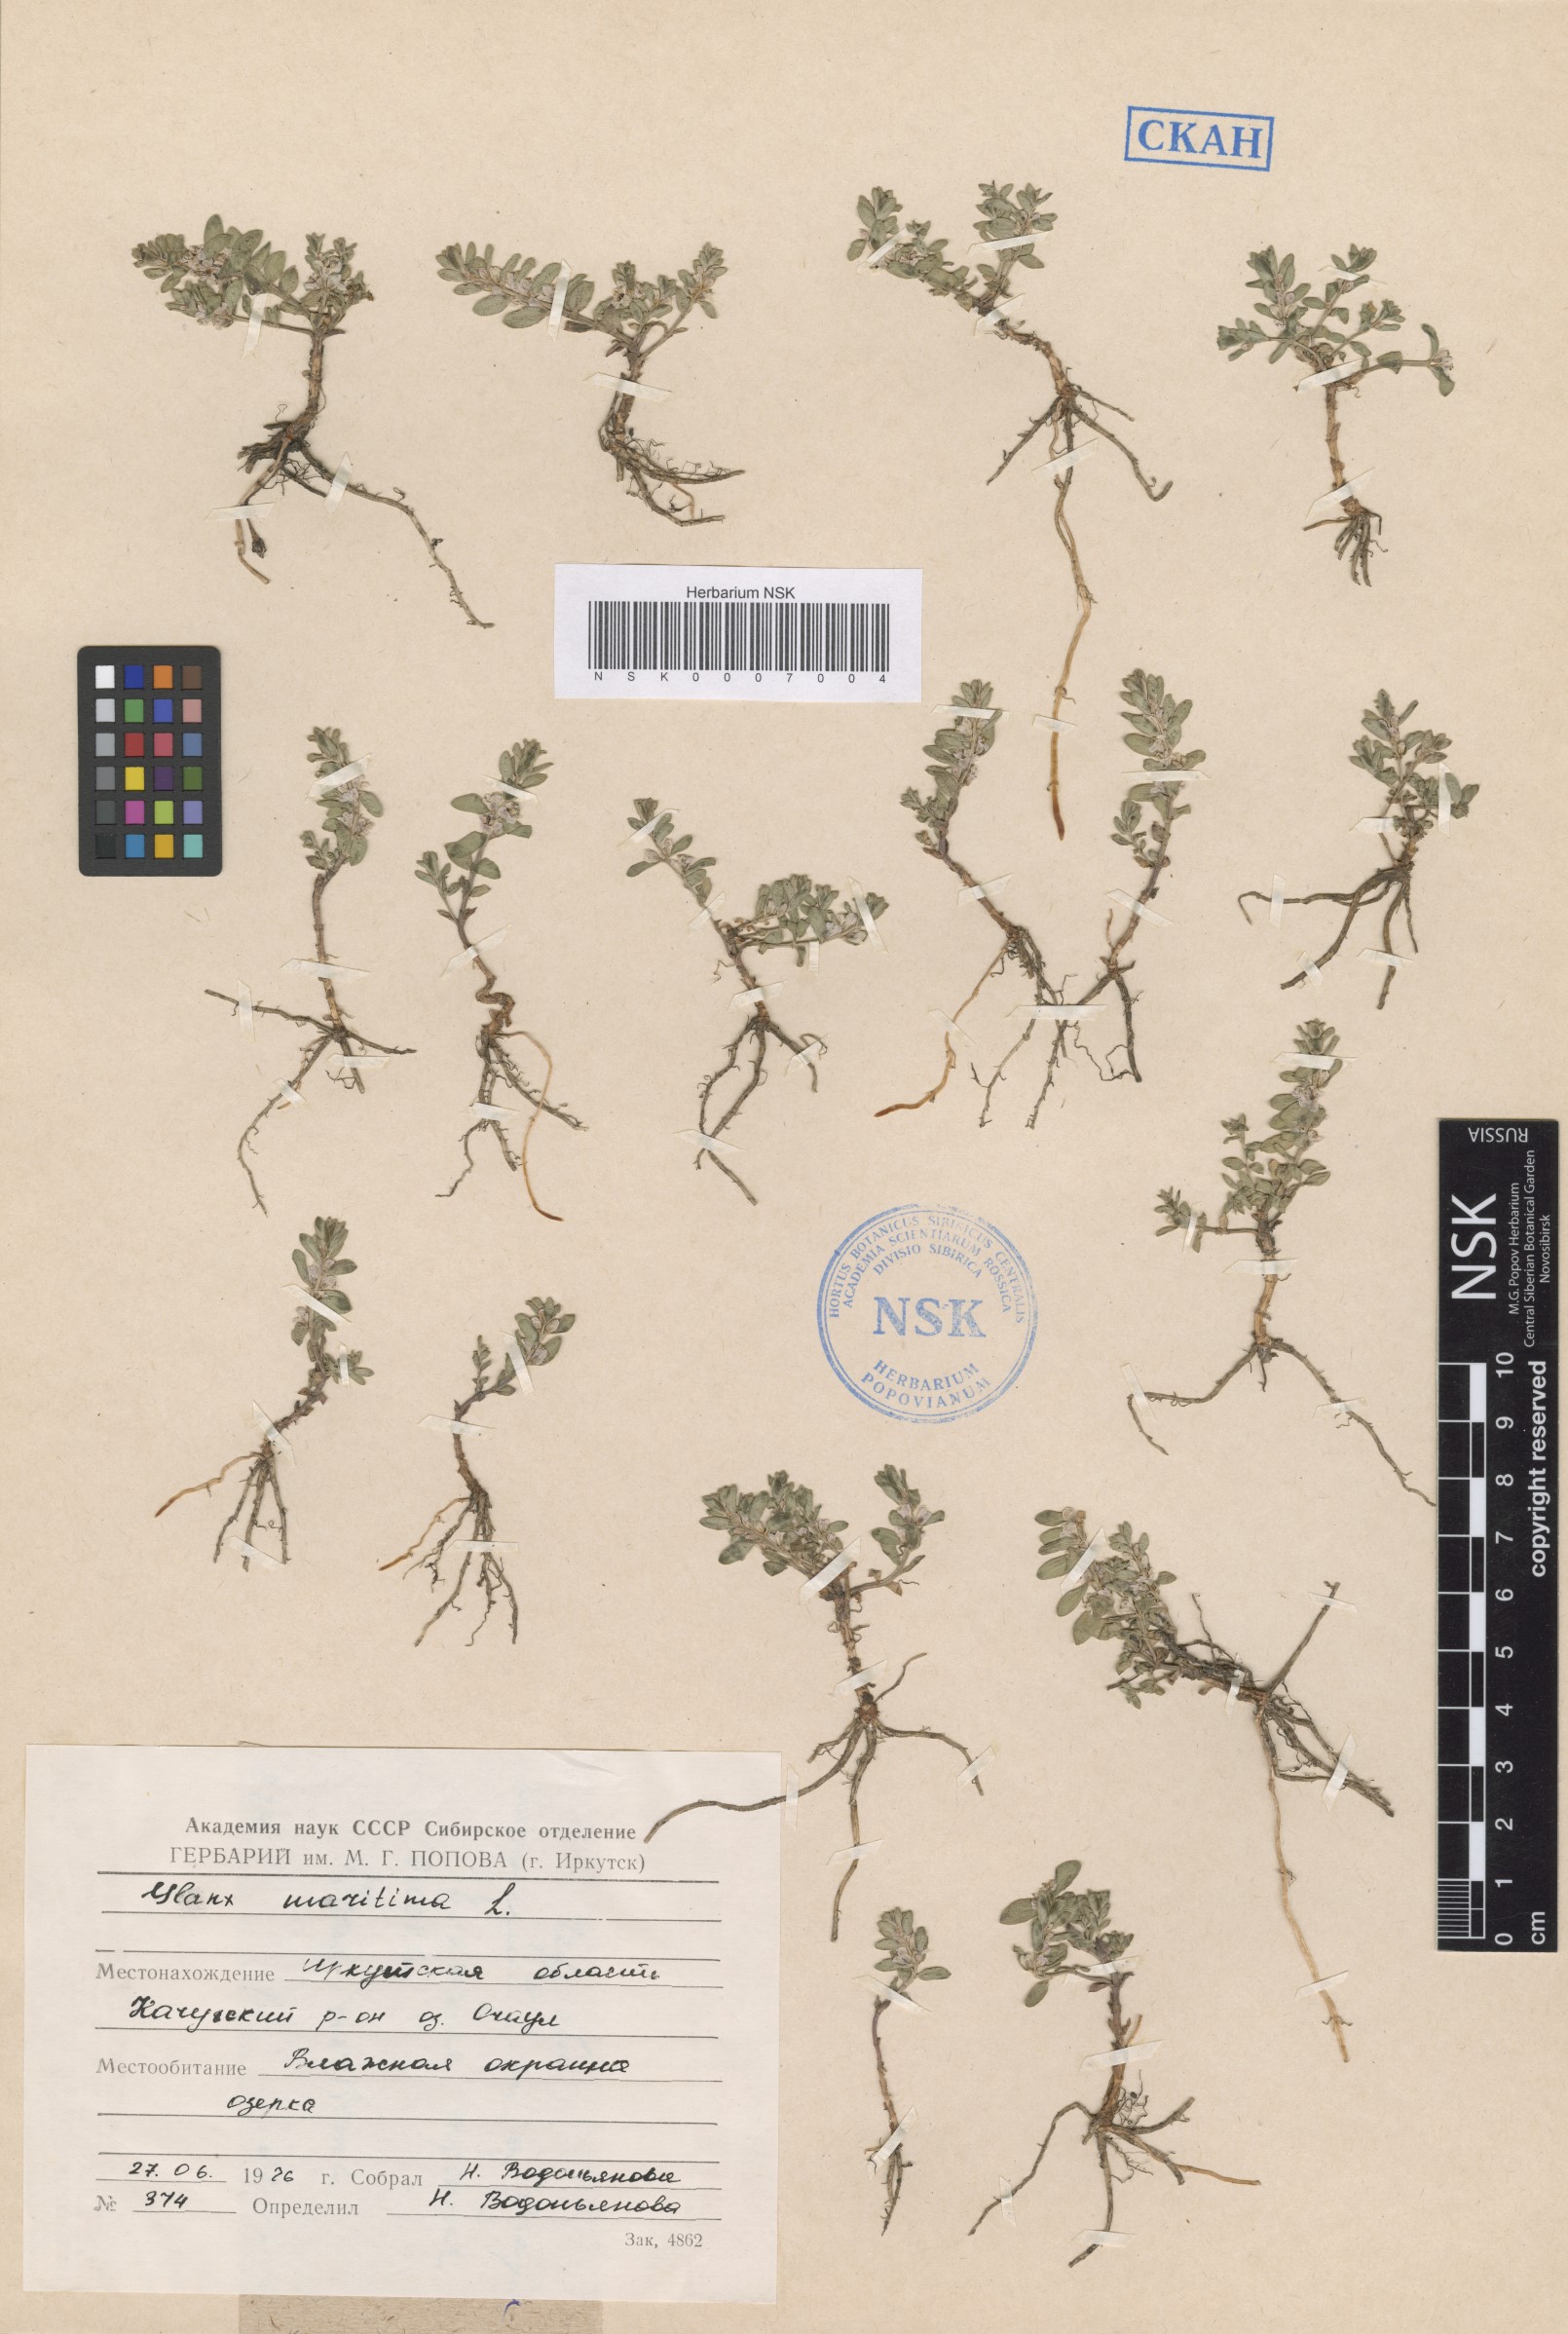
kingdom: Plantae
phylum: Tracheophyta
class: Magnoliopsida
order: Ericales
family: Primulaceae
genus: Lysimachia
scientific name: Lysimachia maritima
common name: Sea milkwort
